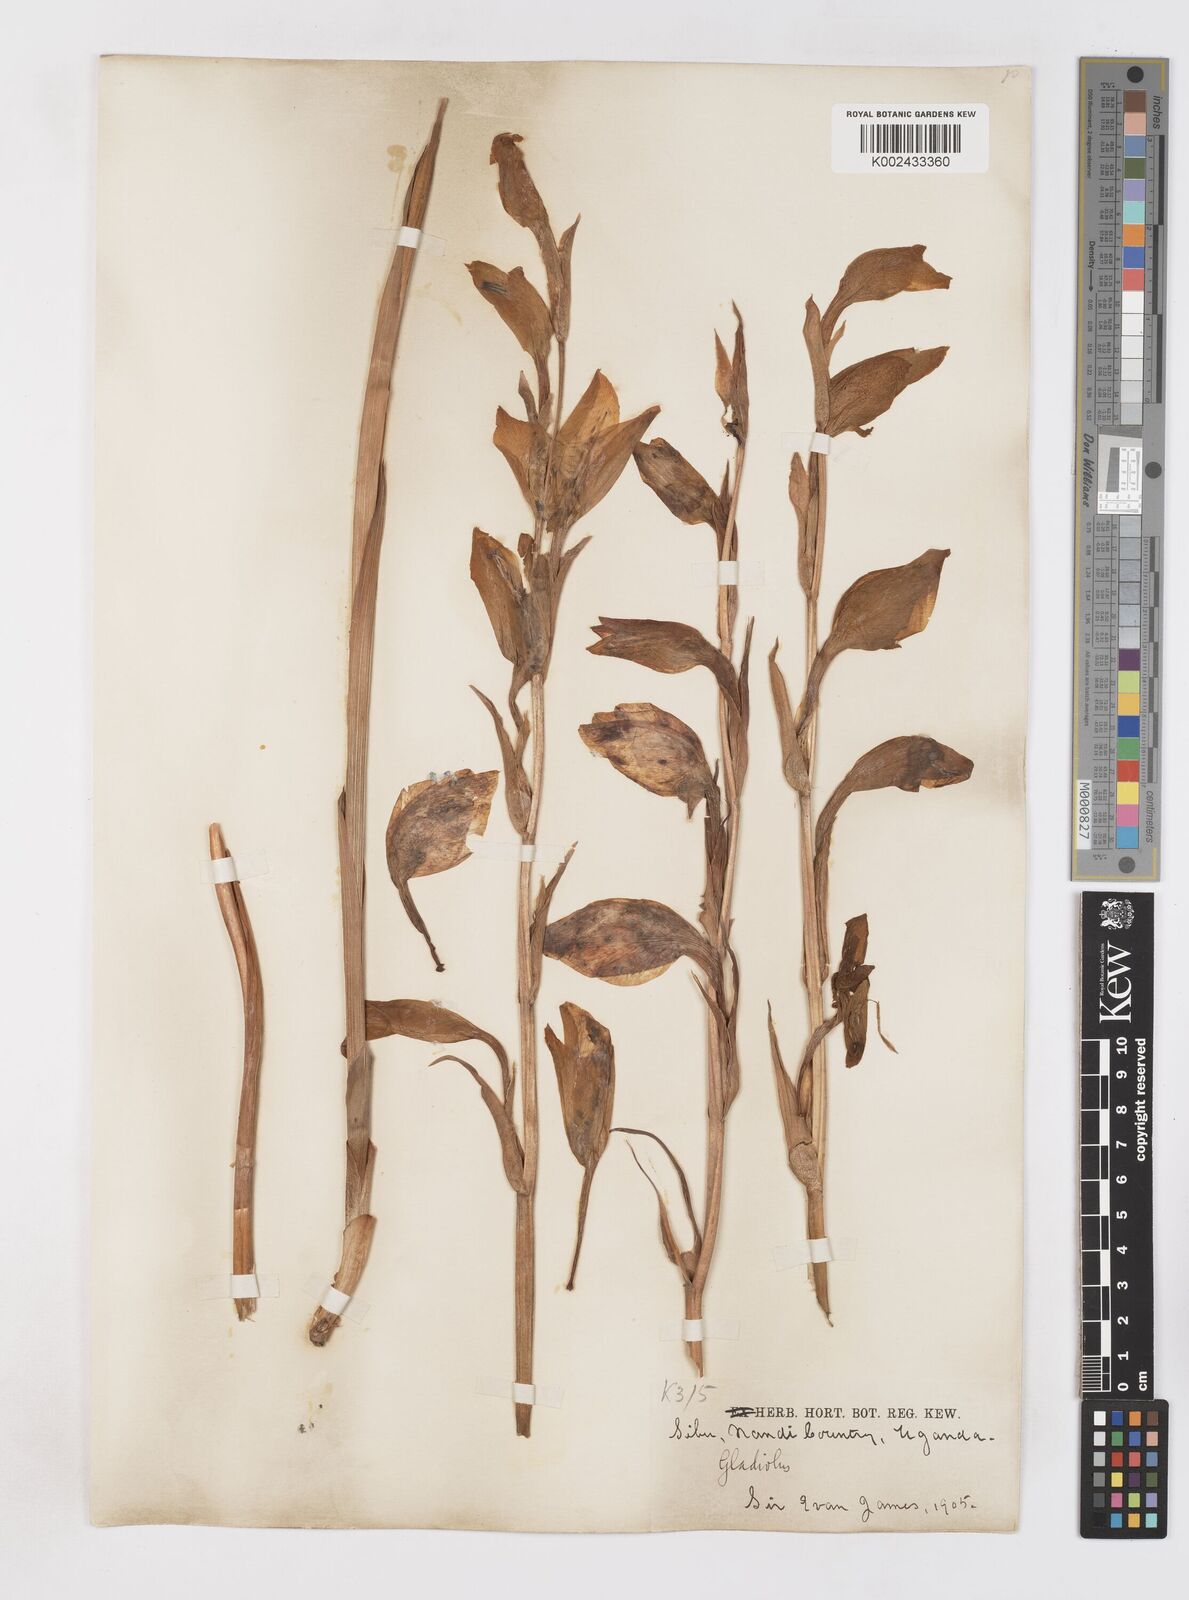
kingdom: Plantae
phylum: Tracheophyta
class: Liliopsida
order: Asparagales
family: Iridaceae
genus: Gladiolus
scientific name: Gladiolus dalenii
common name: Cornflag
